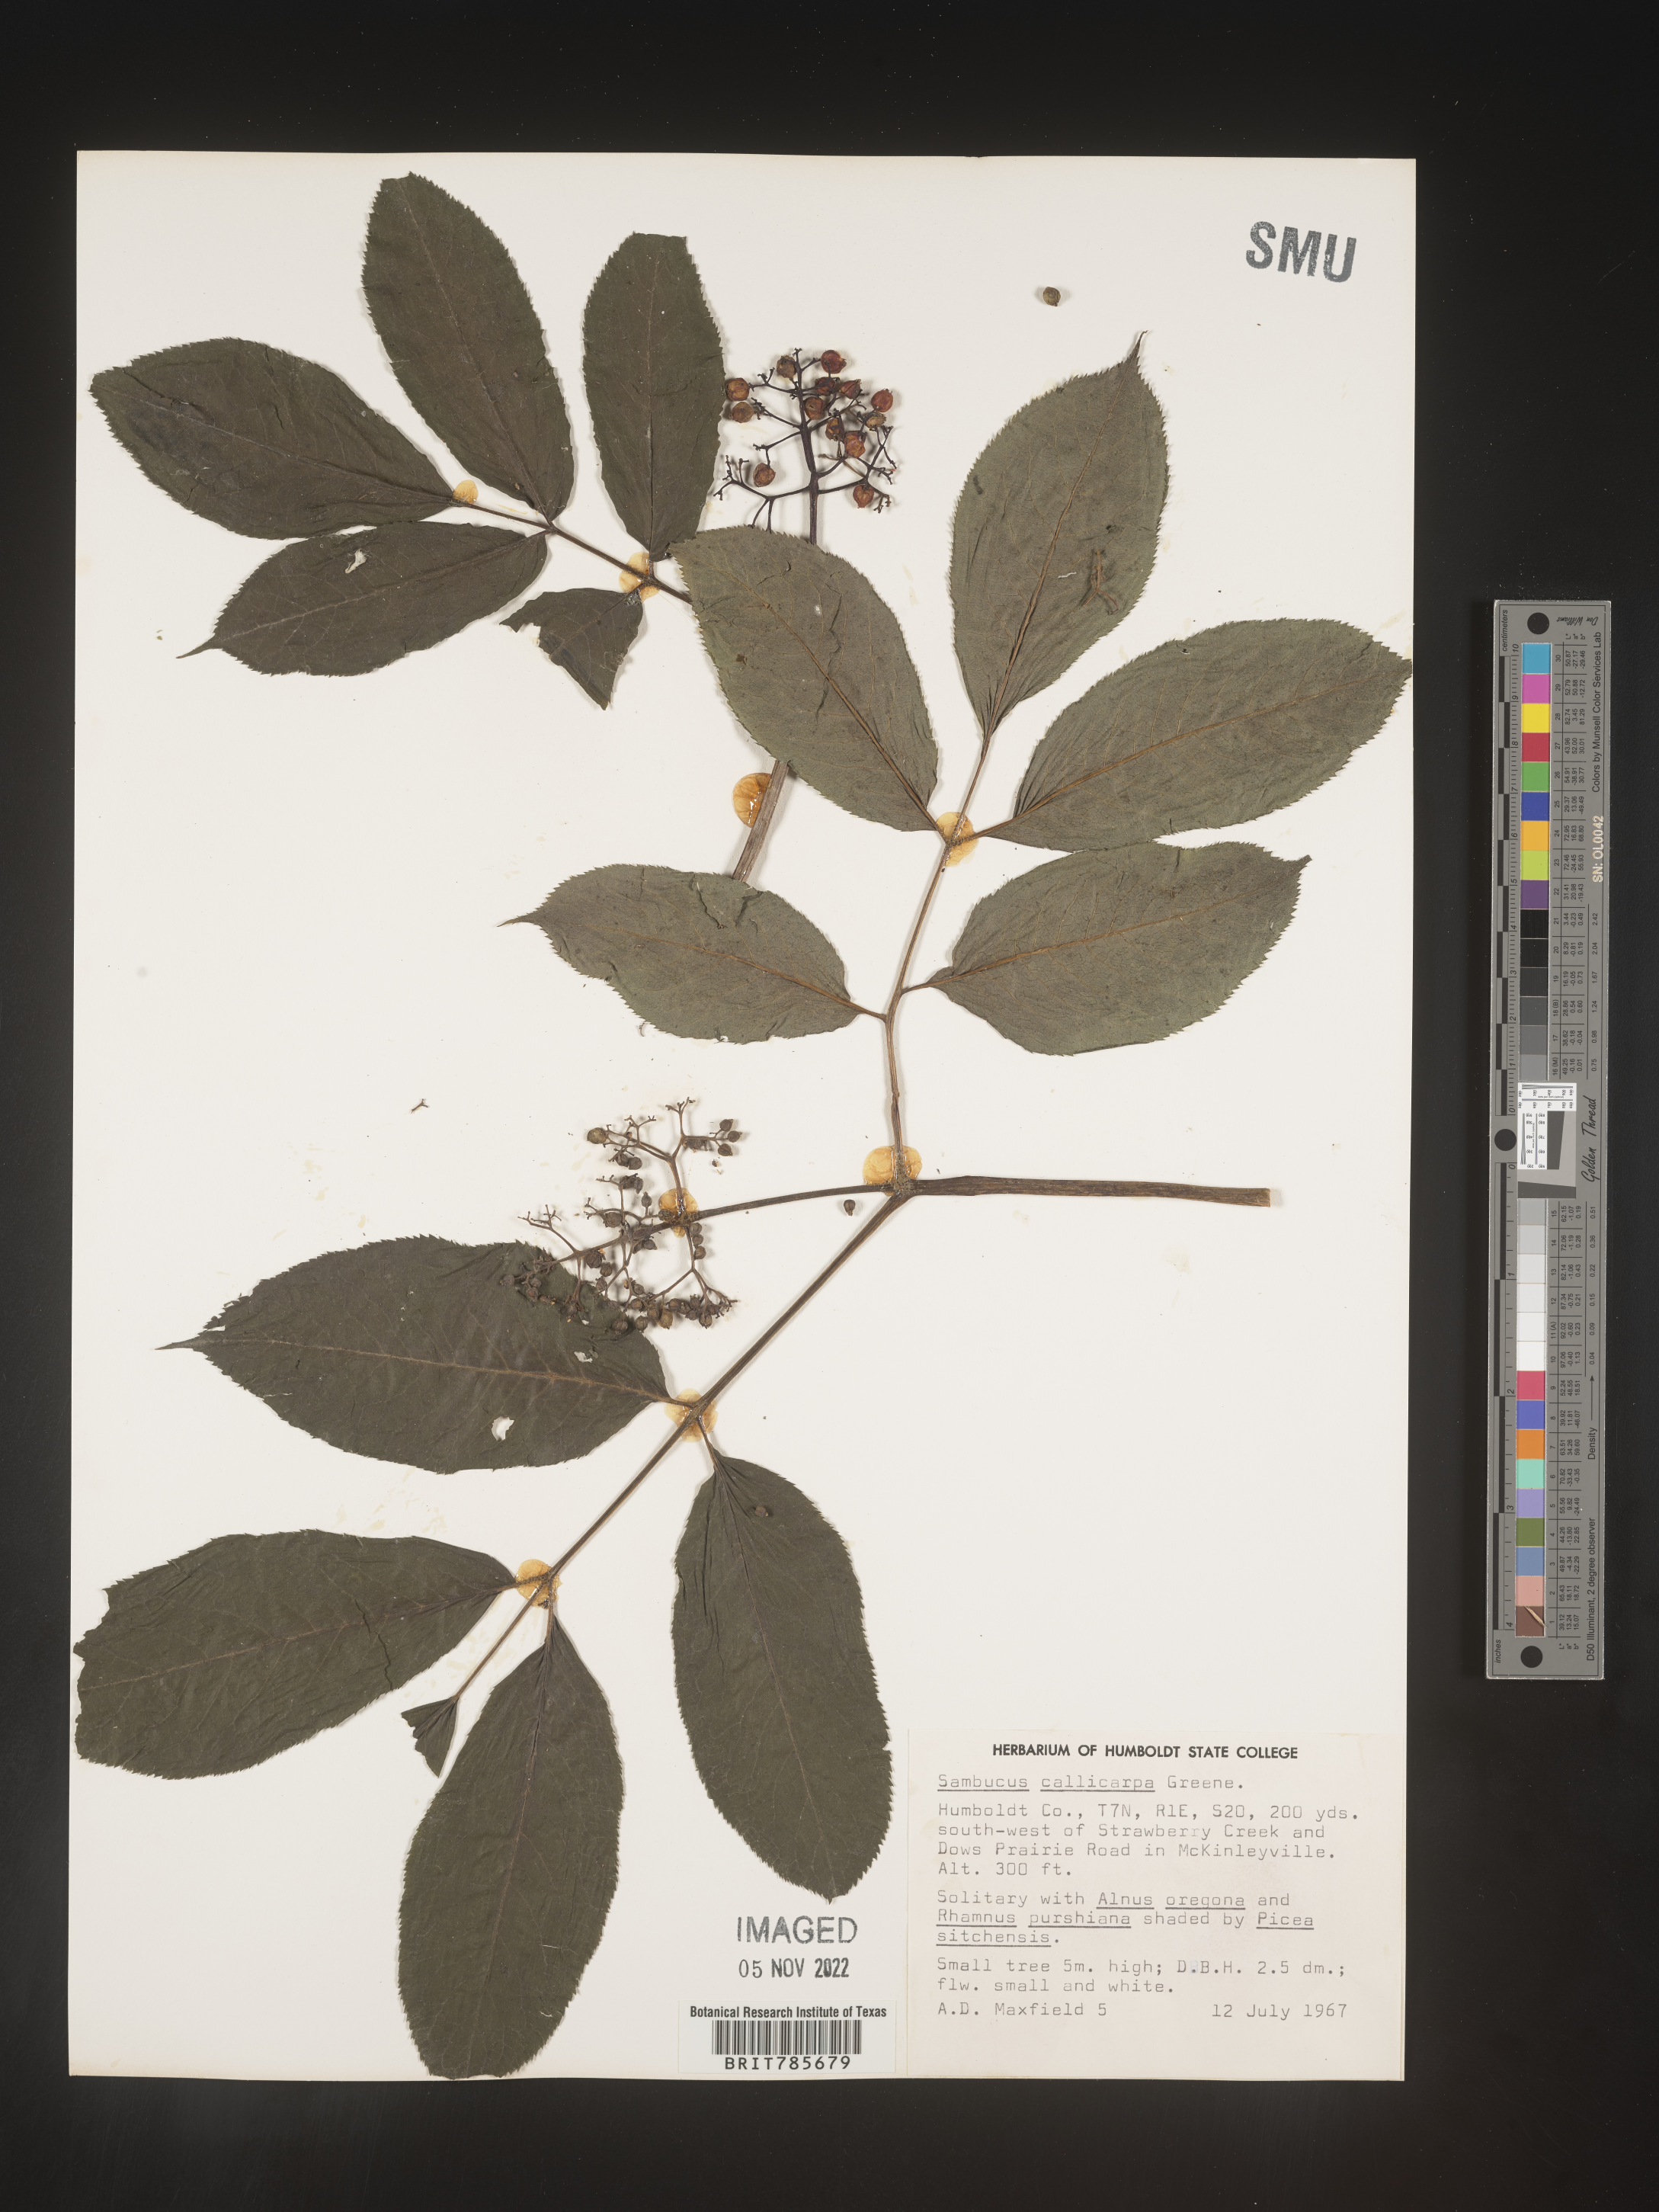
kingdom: Plantae
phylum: Tracheophyta
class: Magnoliopsida
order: Dipsacales
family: Viburnaceae
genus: Sambucus
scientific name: Sambucus racemosa
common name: Red-berried elder
